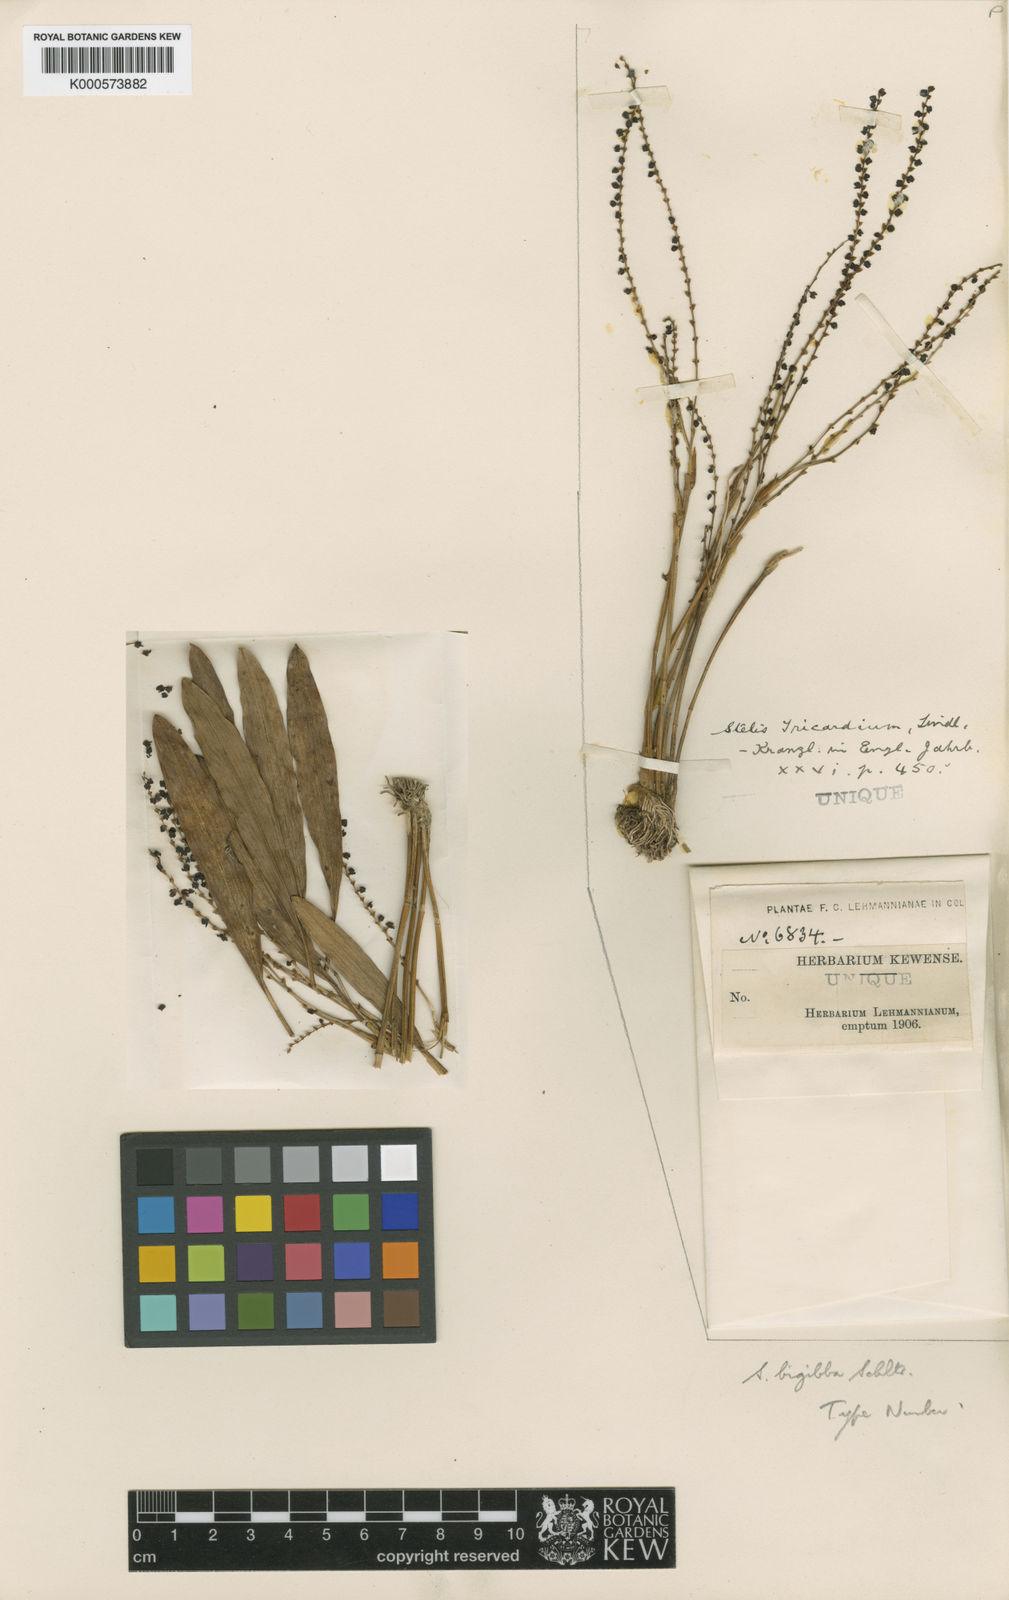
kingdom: Plantae
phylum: Tracheophyta
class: Liliopsida
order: Asparagales
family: Orchidaceae
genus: Stelis
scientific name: Stelis bigibba
